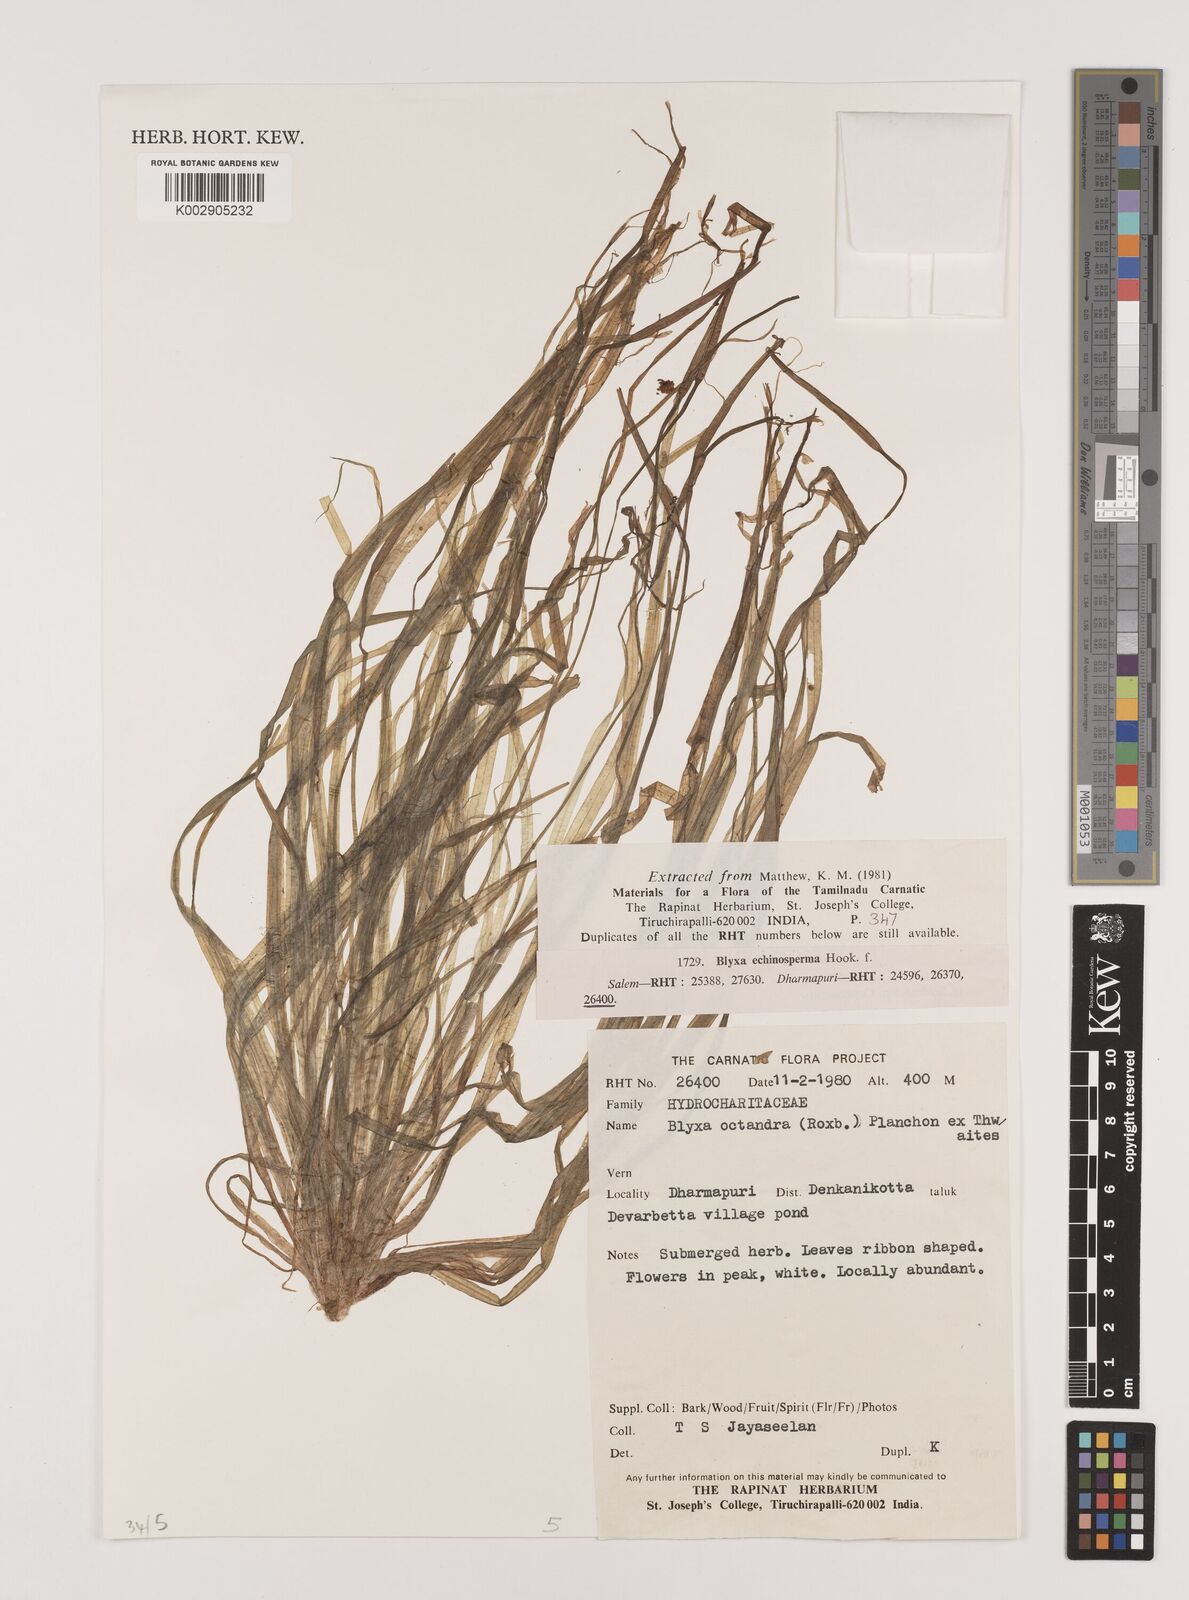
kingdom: Plantae
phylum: Tracheophyta
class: Liliopsida
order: Alismatales
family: Hydrocharitaceae
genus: Blyxa
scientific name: Blyxa octandra
